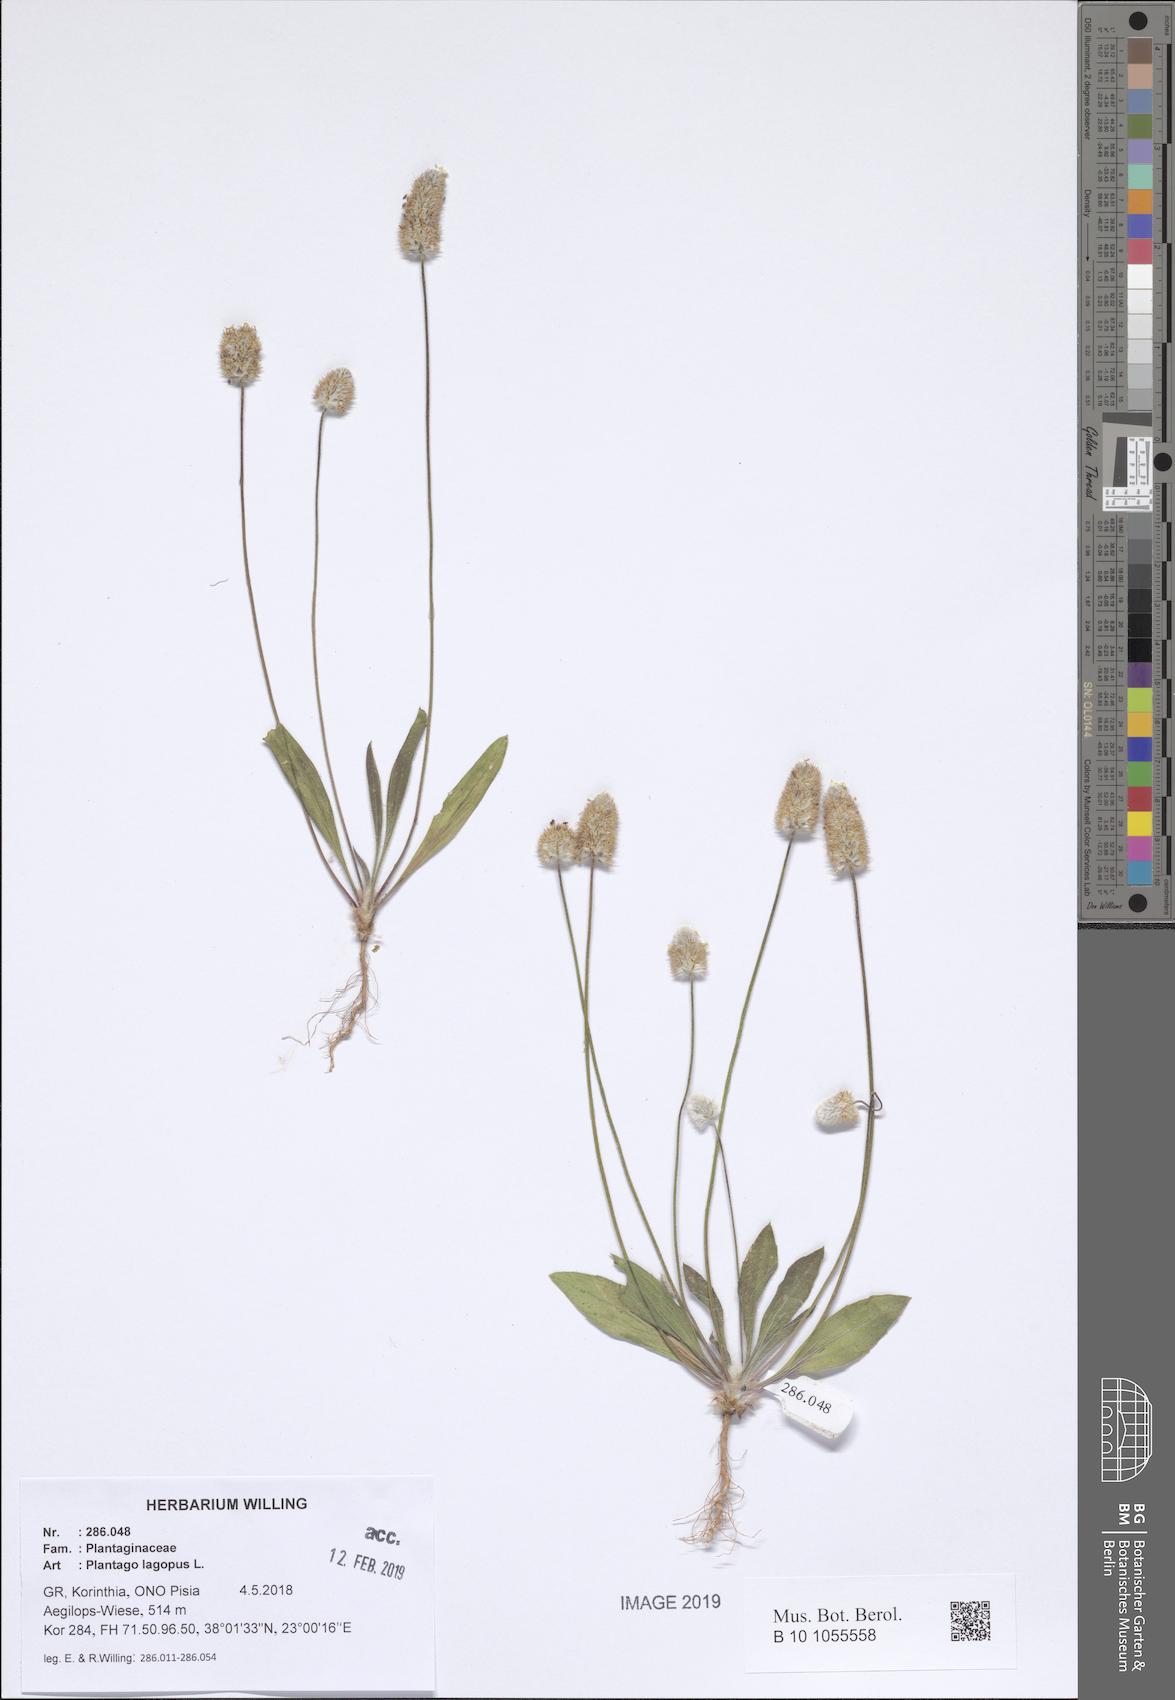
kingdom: Plantae
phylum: Tracheophyta
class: Magnoliopsida
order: Lamiales
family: Plantaginaceae
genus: Plantago
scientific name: Plantago lagopus
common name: Hare-foot plantain
